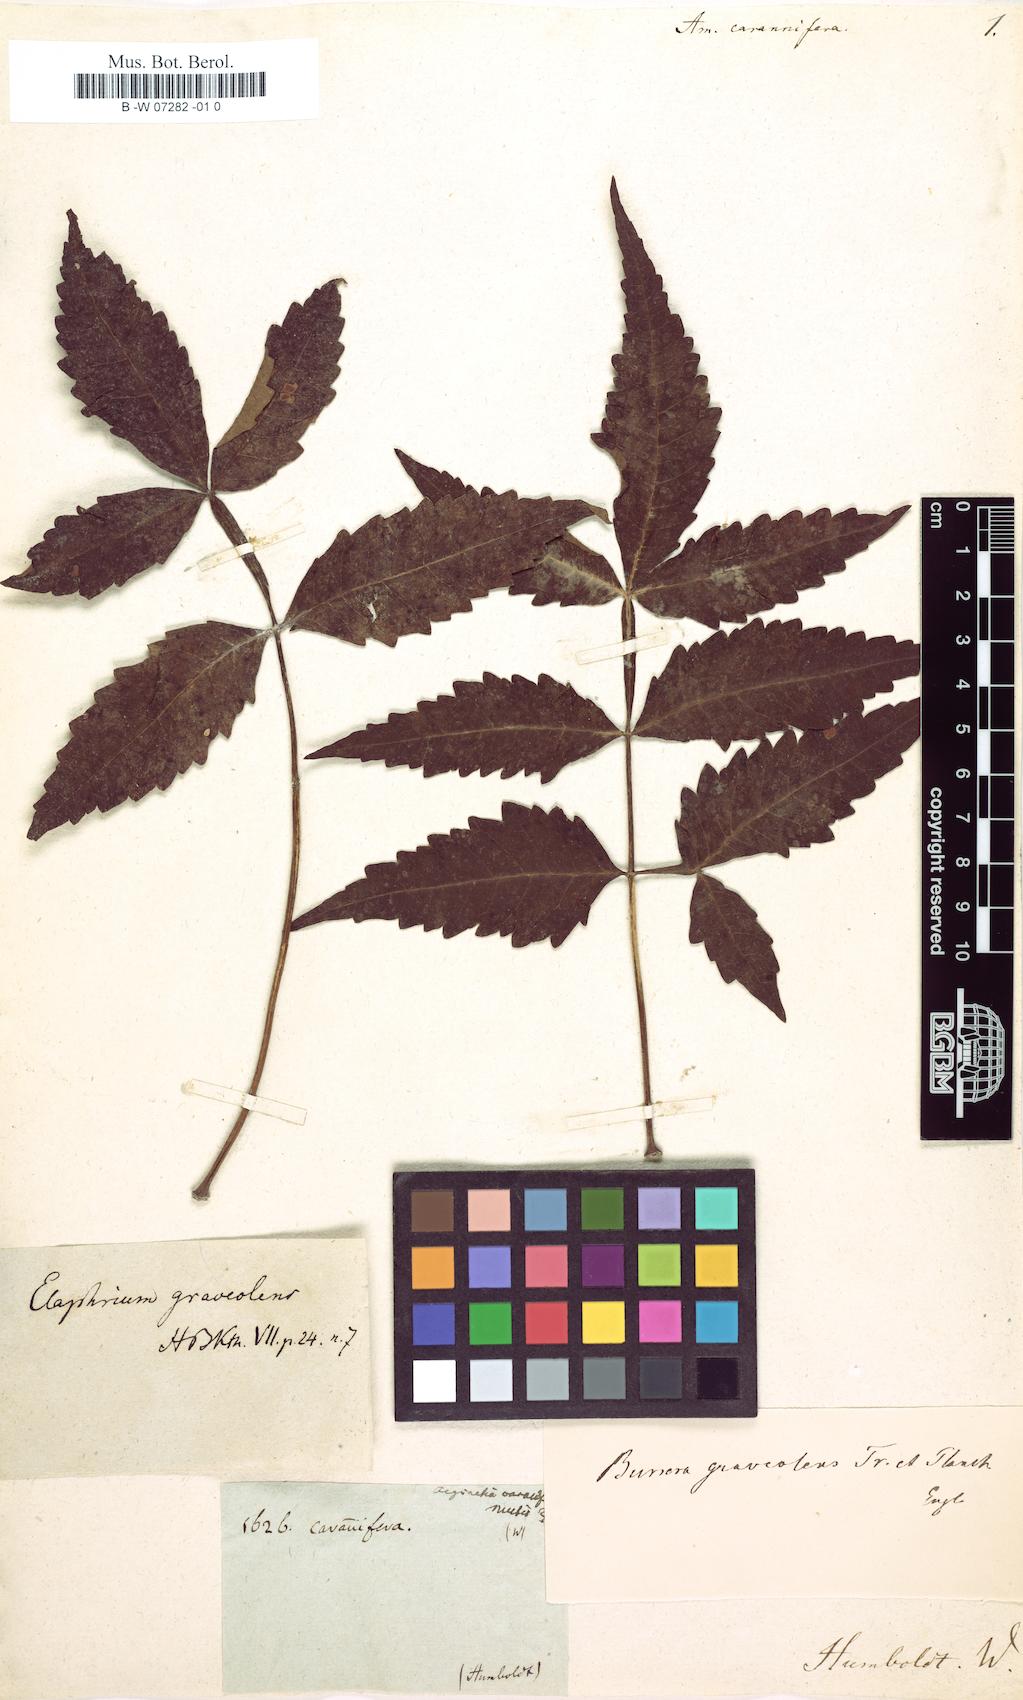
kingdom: Plantae
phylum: Tracheophyta
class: Magnoliopsida
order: Sapindales
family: Burseraceae
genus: Bursera
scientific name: Bursera graveolens
